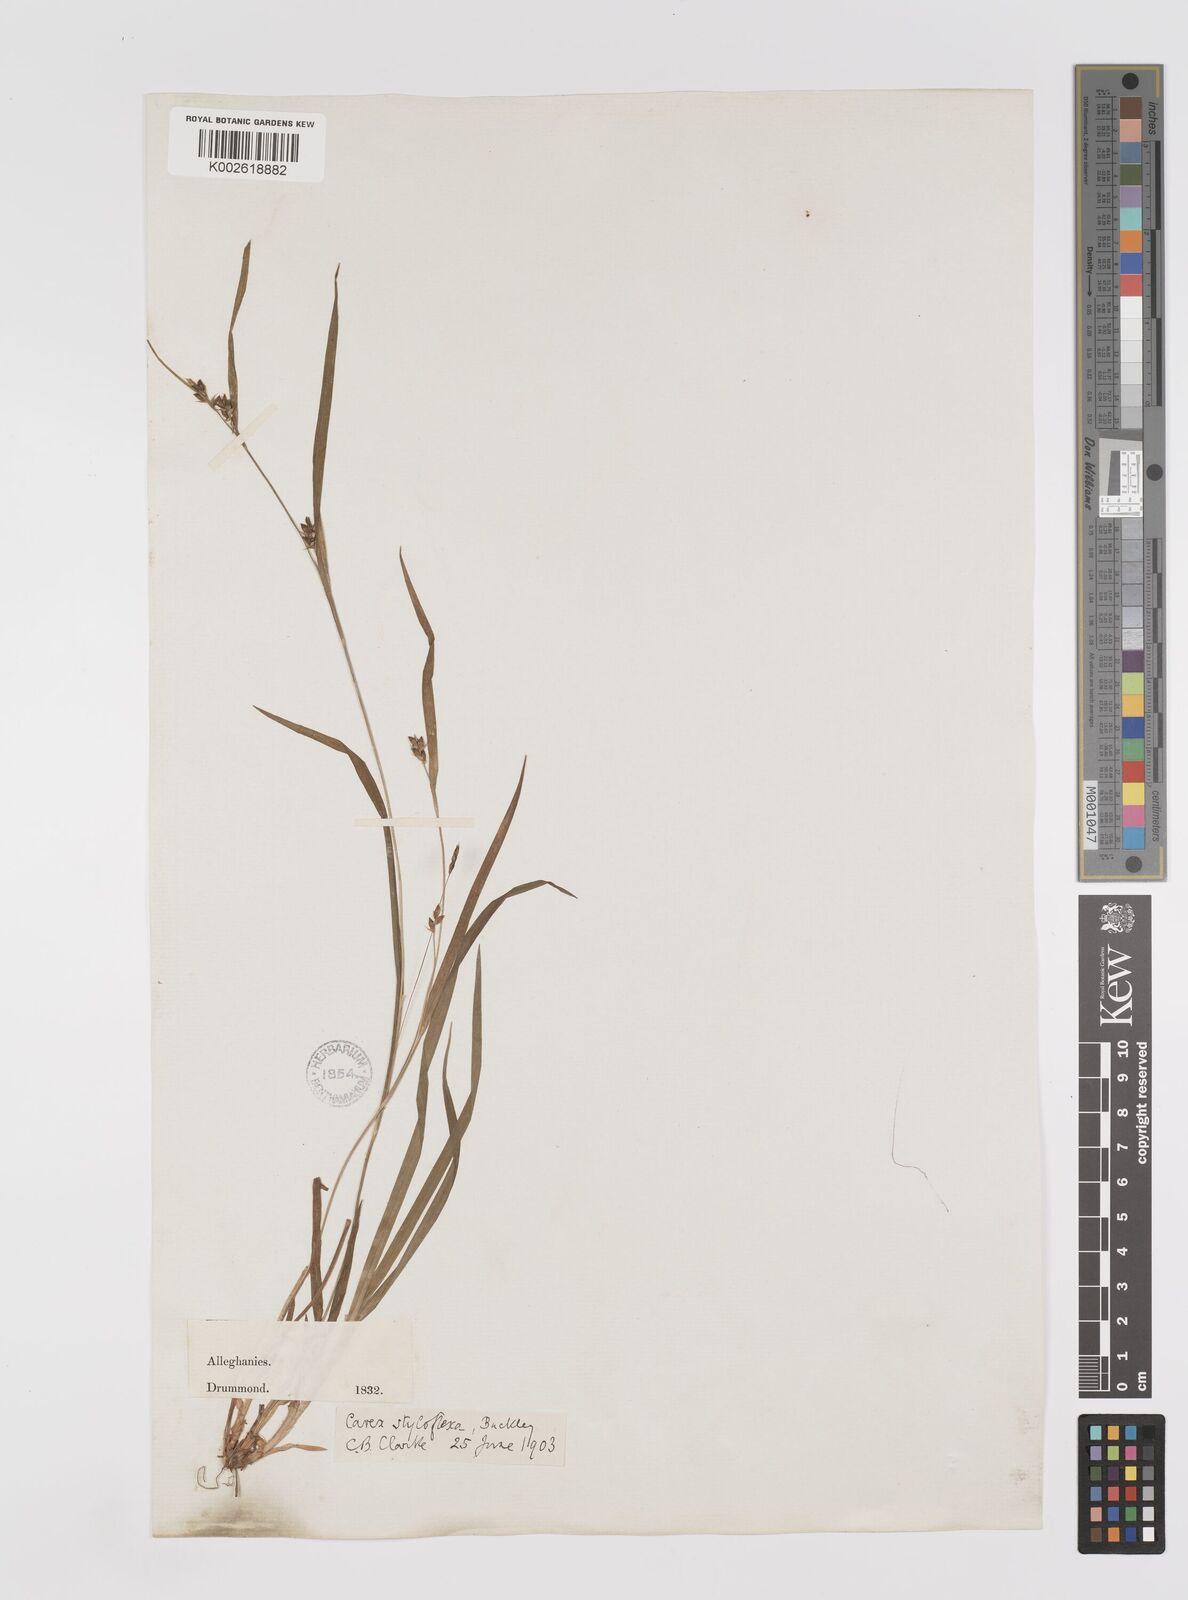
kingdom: Plantae
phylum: Tracheophyta
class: Liliopsida
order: Poales
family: Cyperaceae
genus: Carex
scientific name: Carex styloflexa
